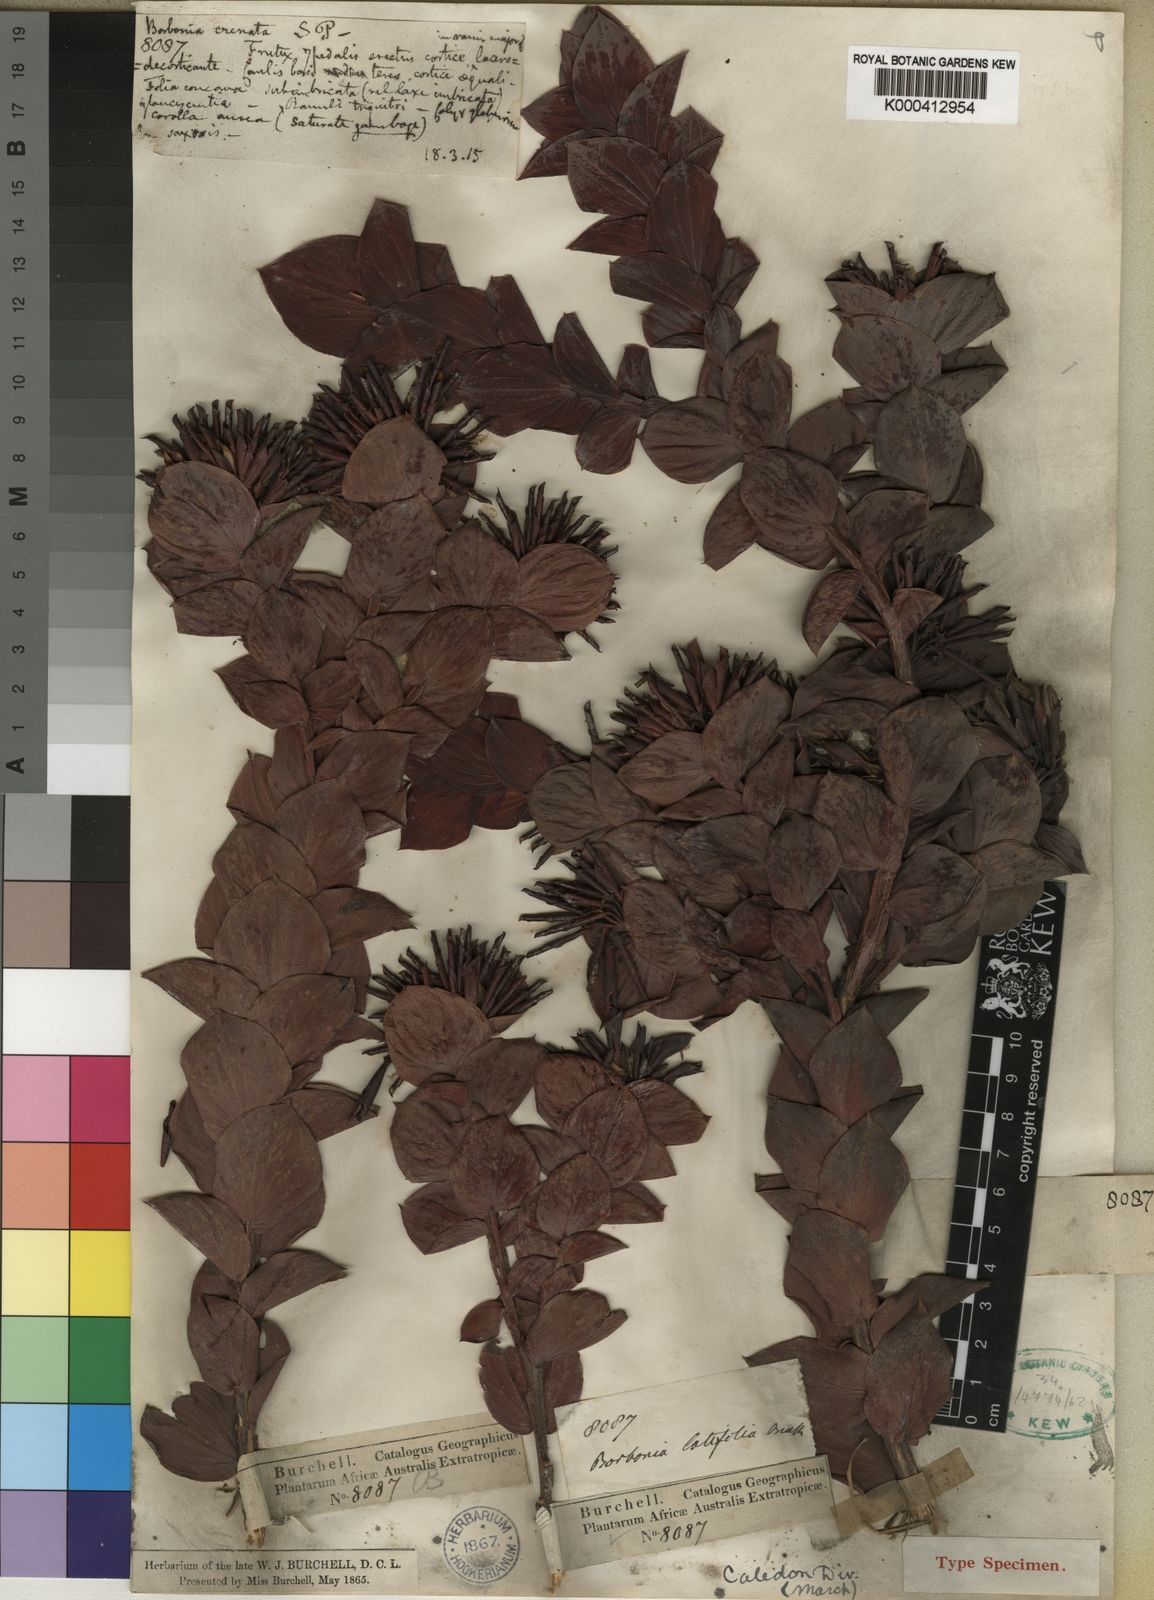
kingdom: Plantae
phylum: Tracheophyta
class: Magnoliopsida
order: Fabales
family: Fabaceae
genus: Aspalathus
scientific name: Aspalathus elliptica
